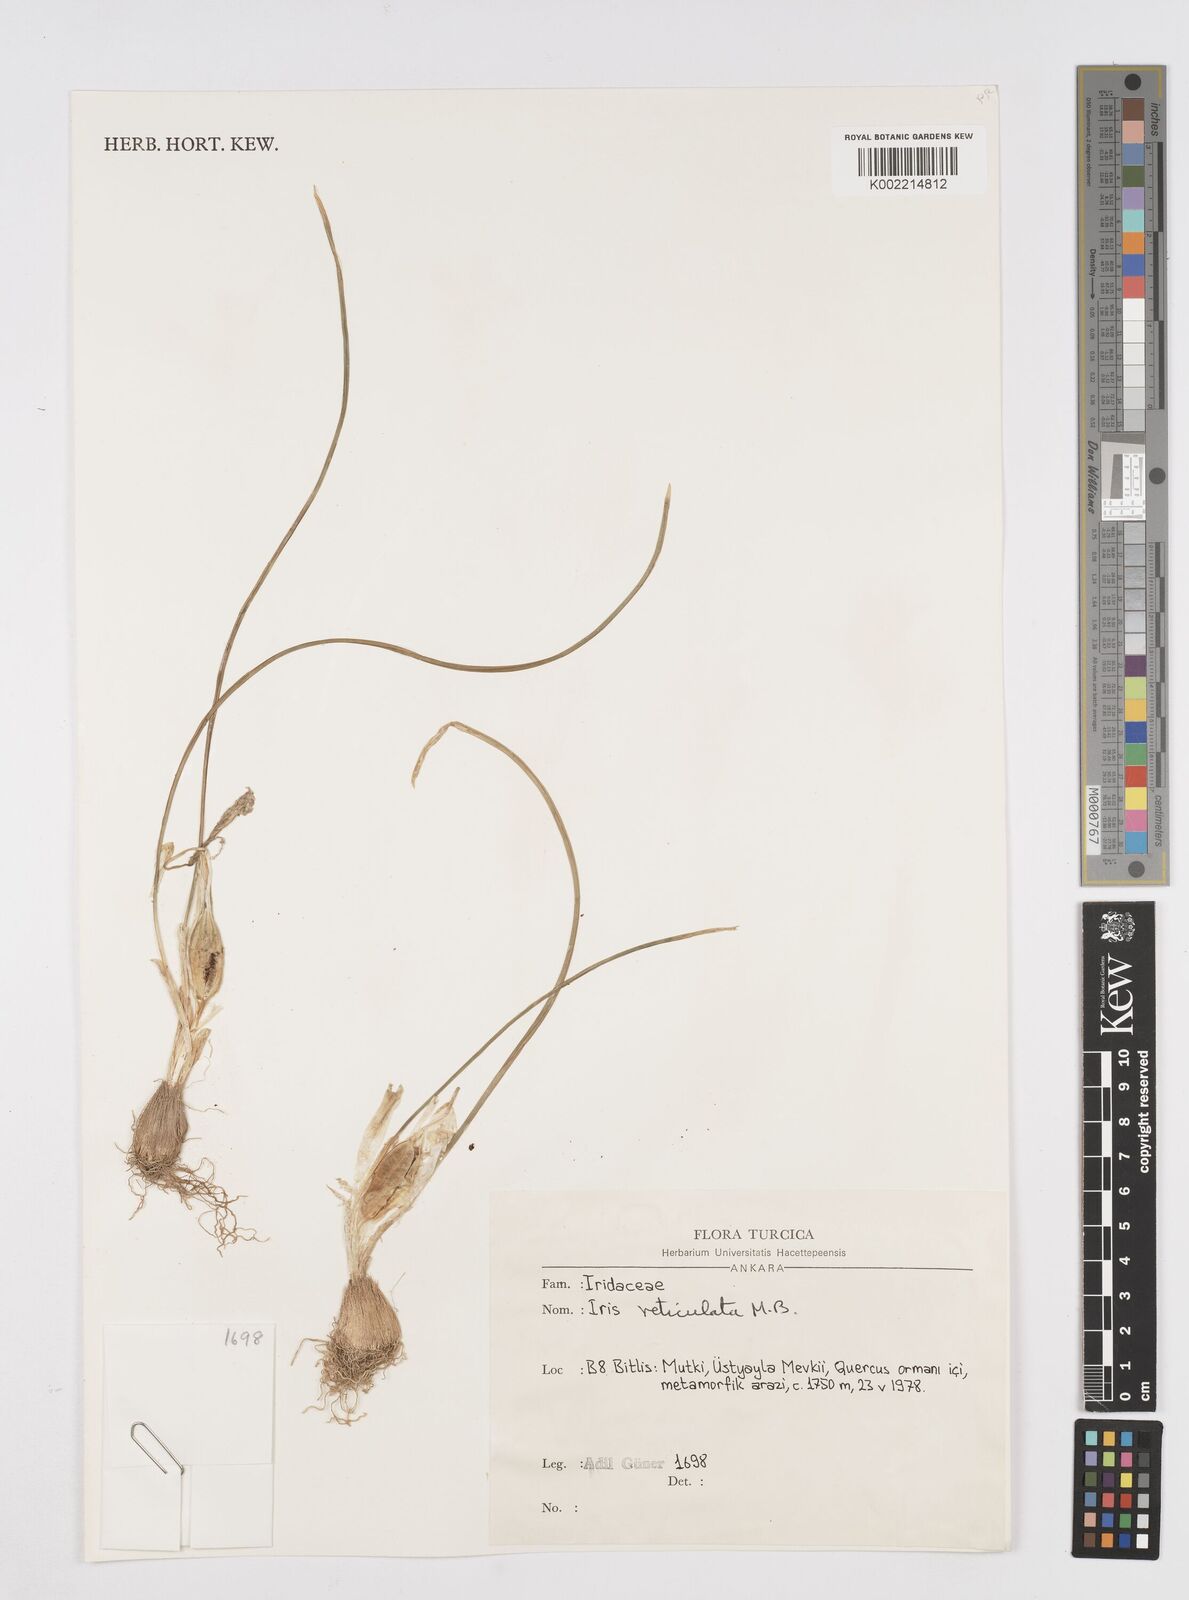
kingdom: Plantae
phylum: Tracheophyta
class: Liliopsida
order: Asparagales
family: Iridaceae
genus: Iris
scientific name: Iris reticulata
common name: Netted iris
